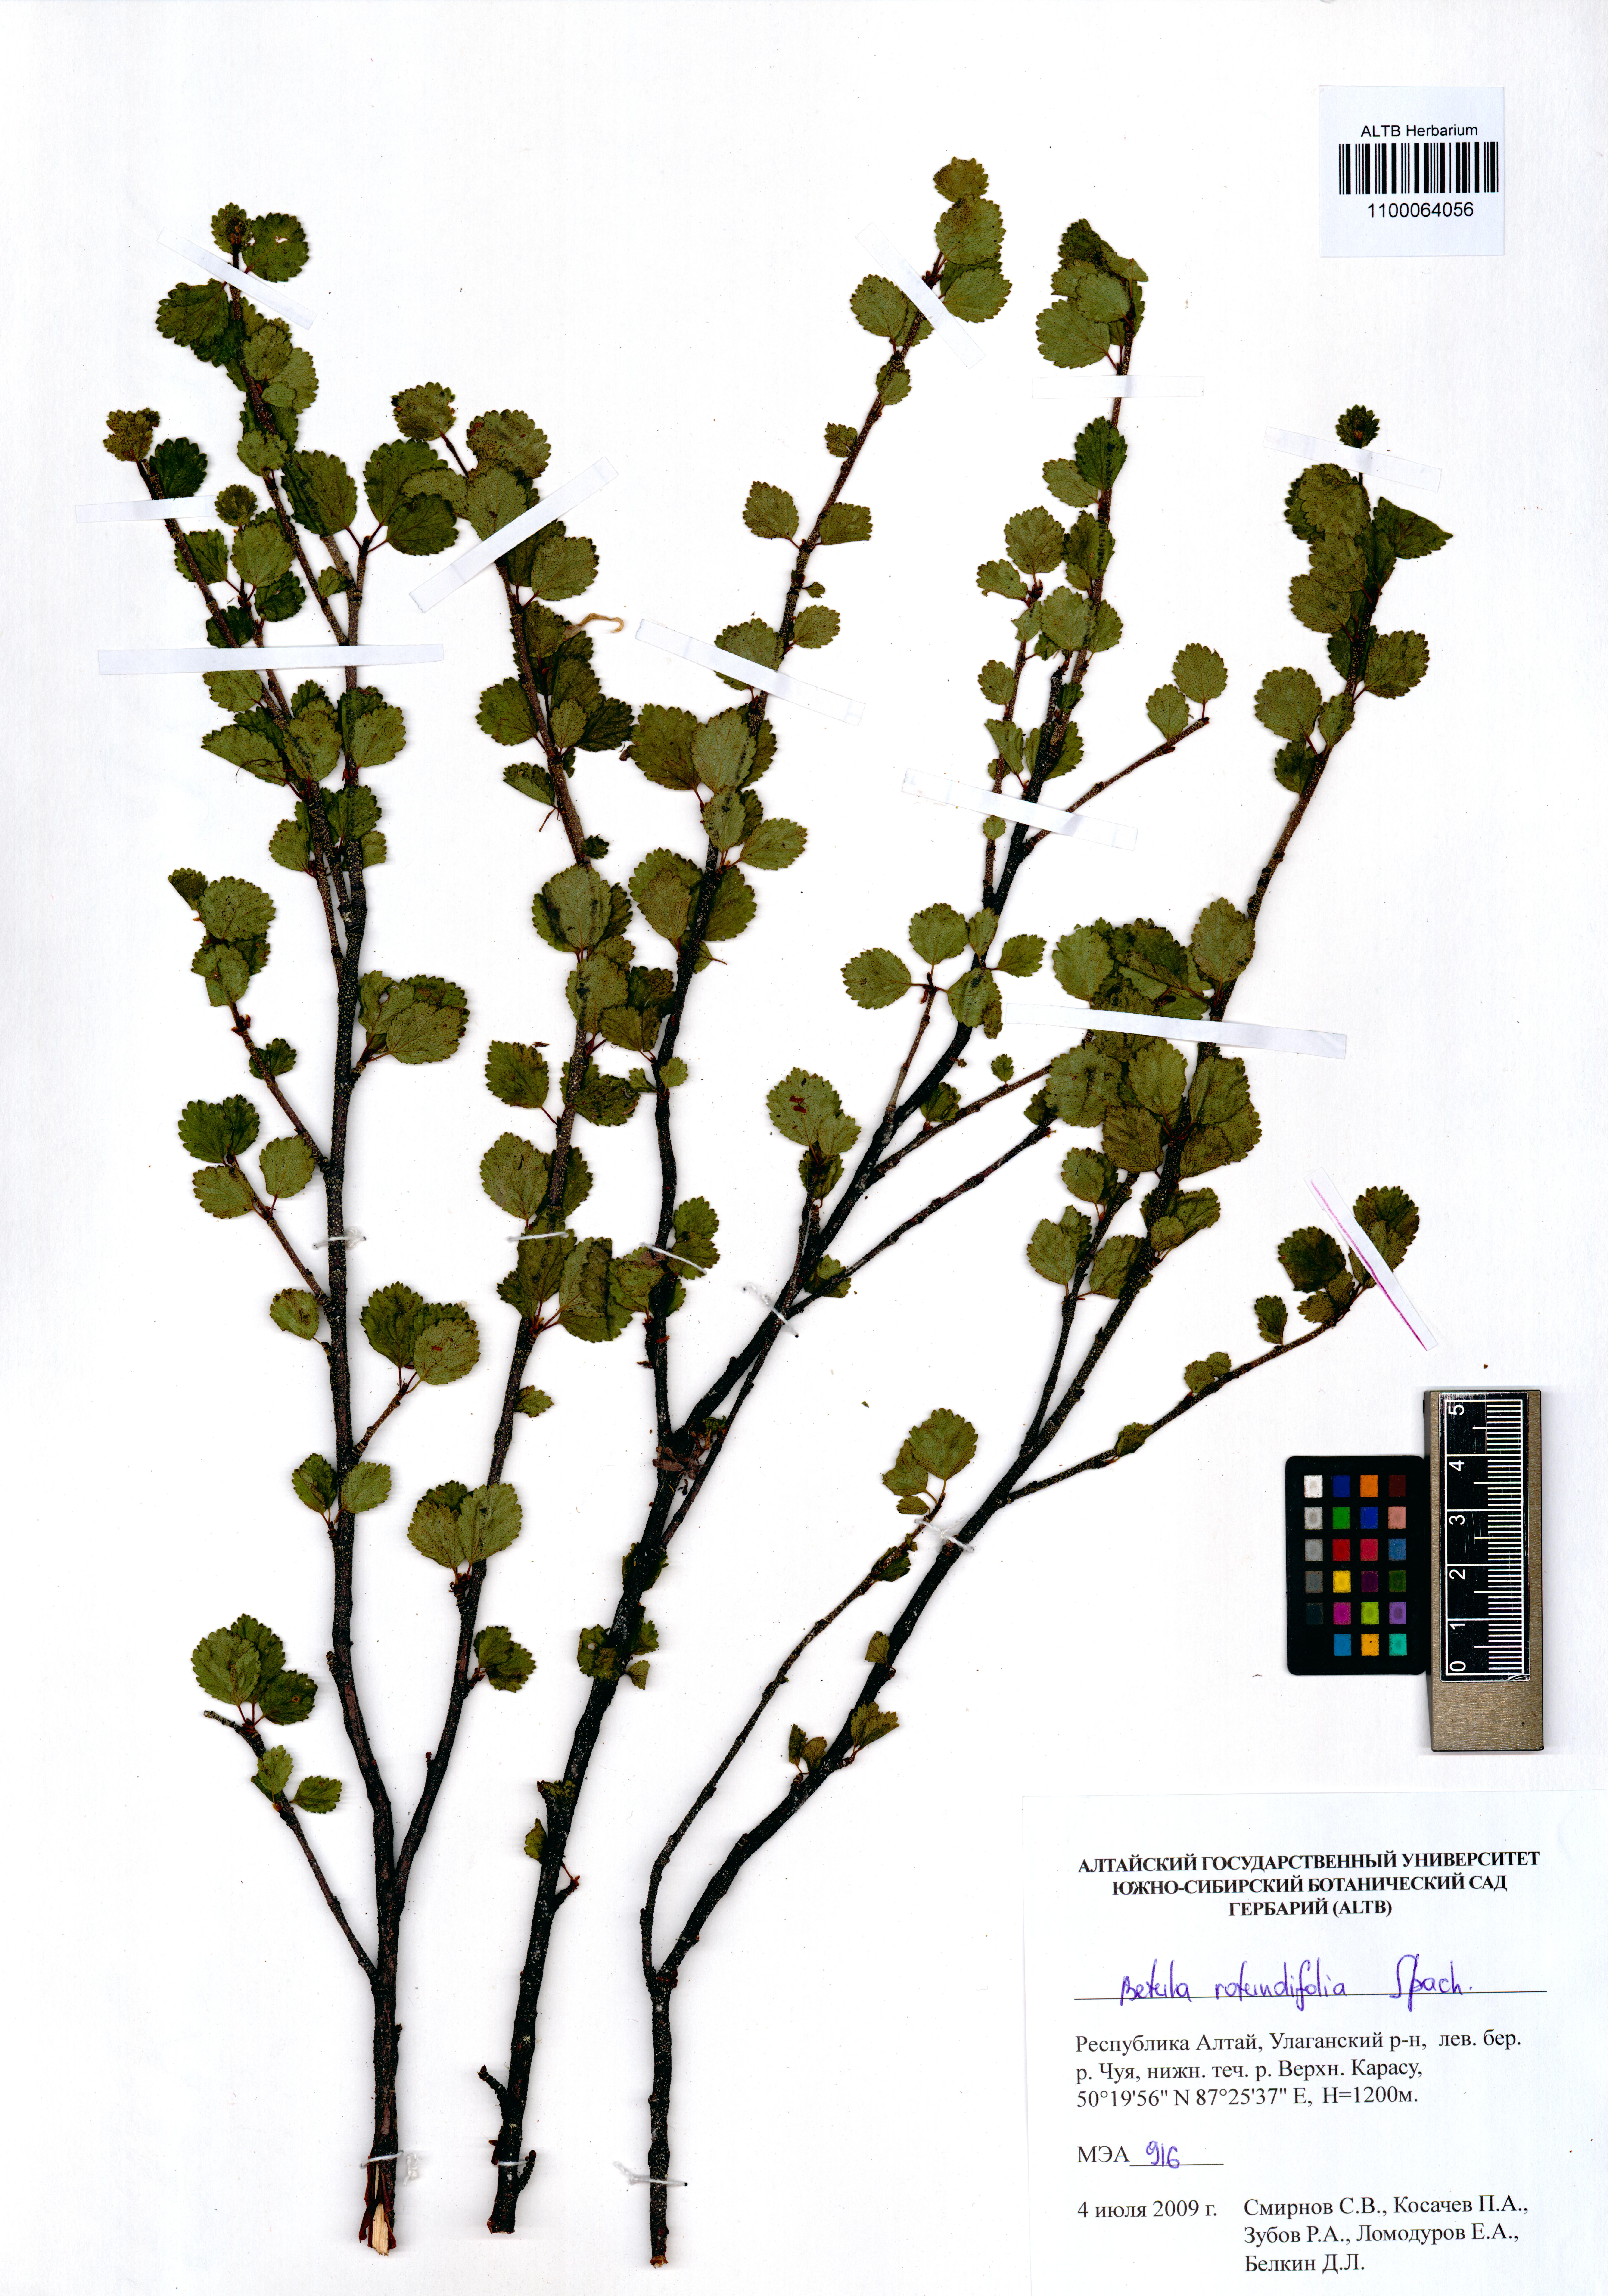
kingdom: Plantae
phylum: Tracheophyta
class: Magnoliopsida
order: Fagales
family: Betulaceae
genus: Betula
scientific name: Betula glandulosa
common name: Dwarf birch
